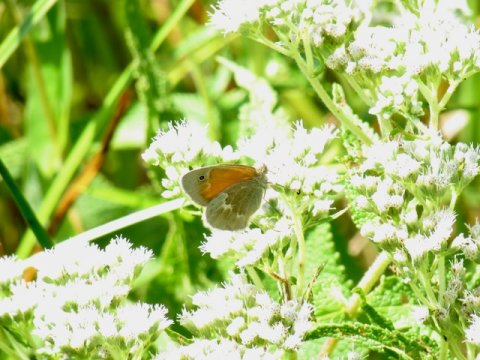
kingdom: Animalia
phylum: Arthropoda
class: Insecta
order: Lepidoptera
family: Nymphalidae
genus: Coenonympha
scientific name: Coenonympha tullia
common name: Large Heath
